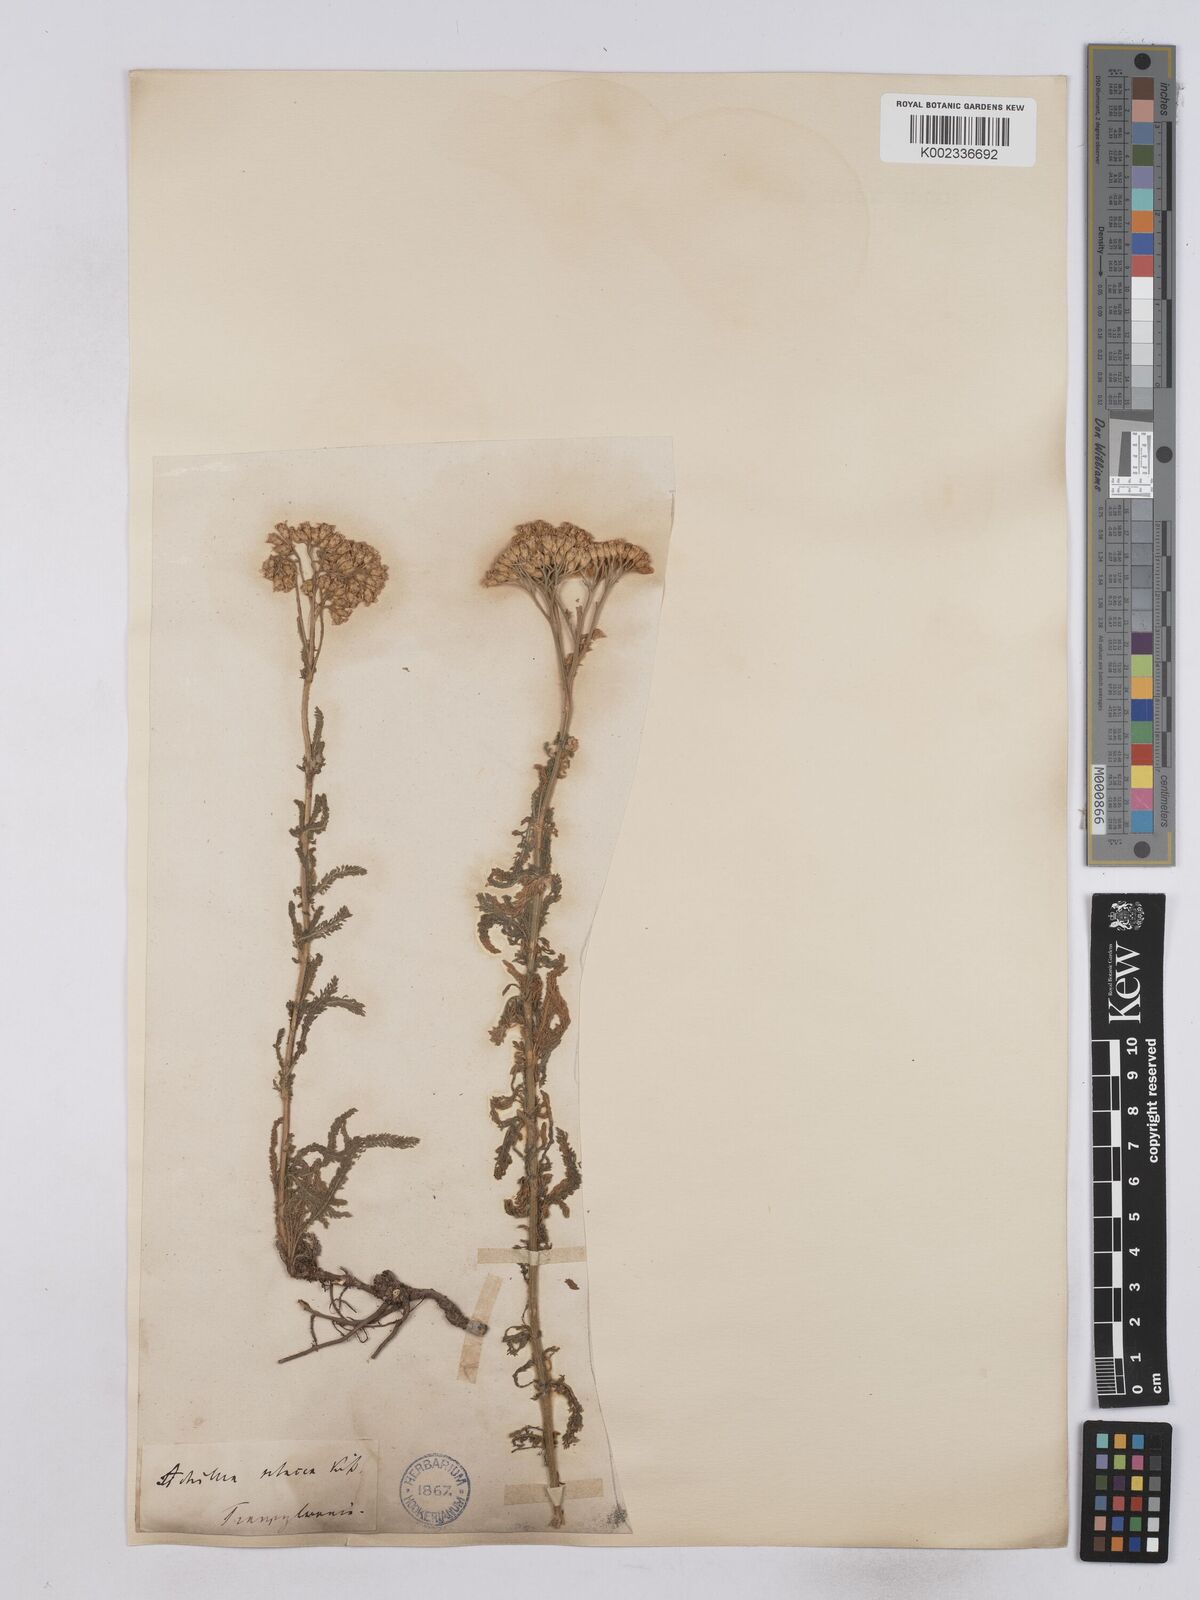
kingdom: Plantae
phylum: Tracheophyta
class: Magnoliopsida
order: Asterales
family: Asteraceae
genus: Achillea
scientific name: Achillea setacea
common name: Bristly yarrow
